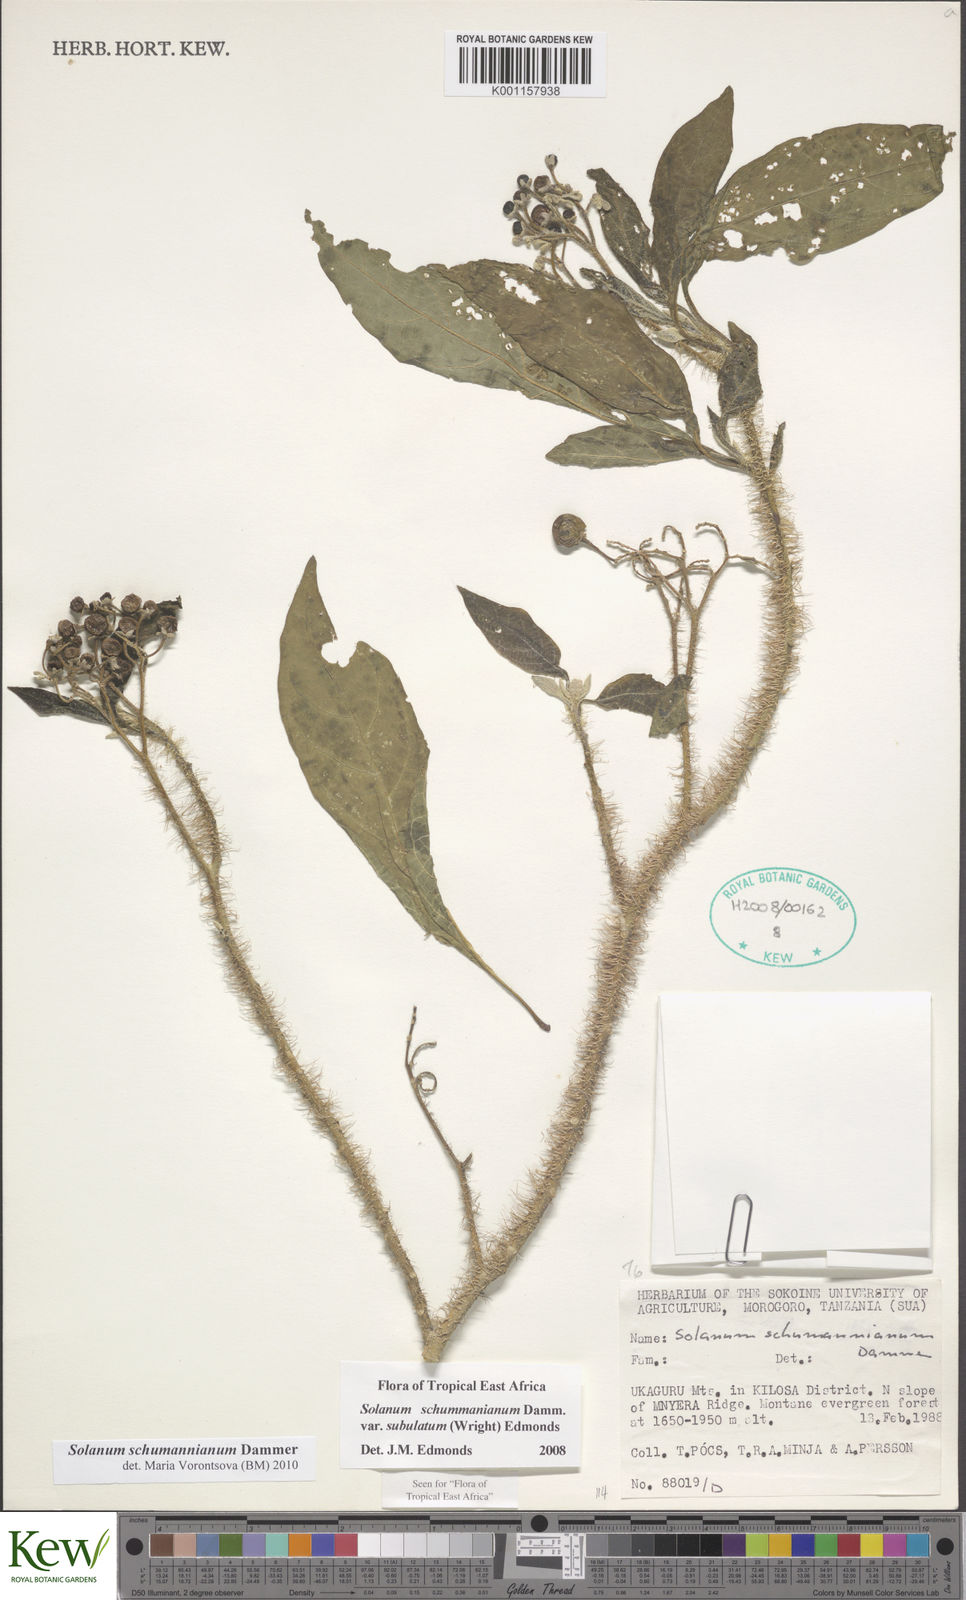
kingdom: Plantae
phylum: Tracheophyta
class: Magnoliopsida
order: Solanales
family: Solanaceae
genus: Solanum
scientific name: Solanum schumannianum
